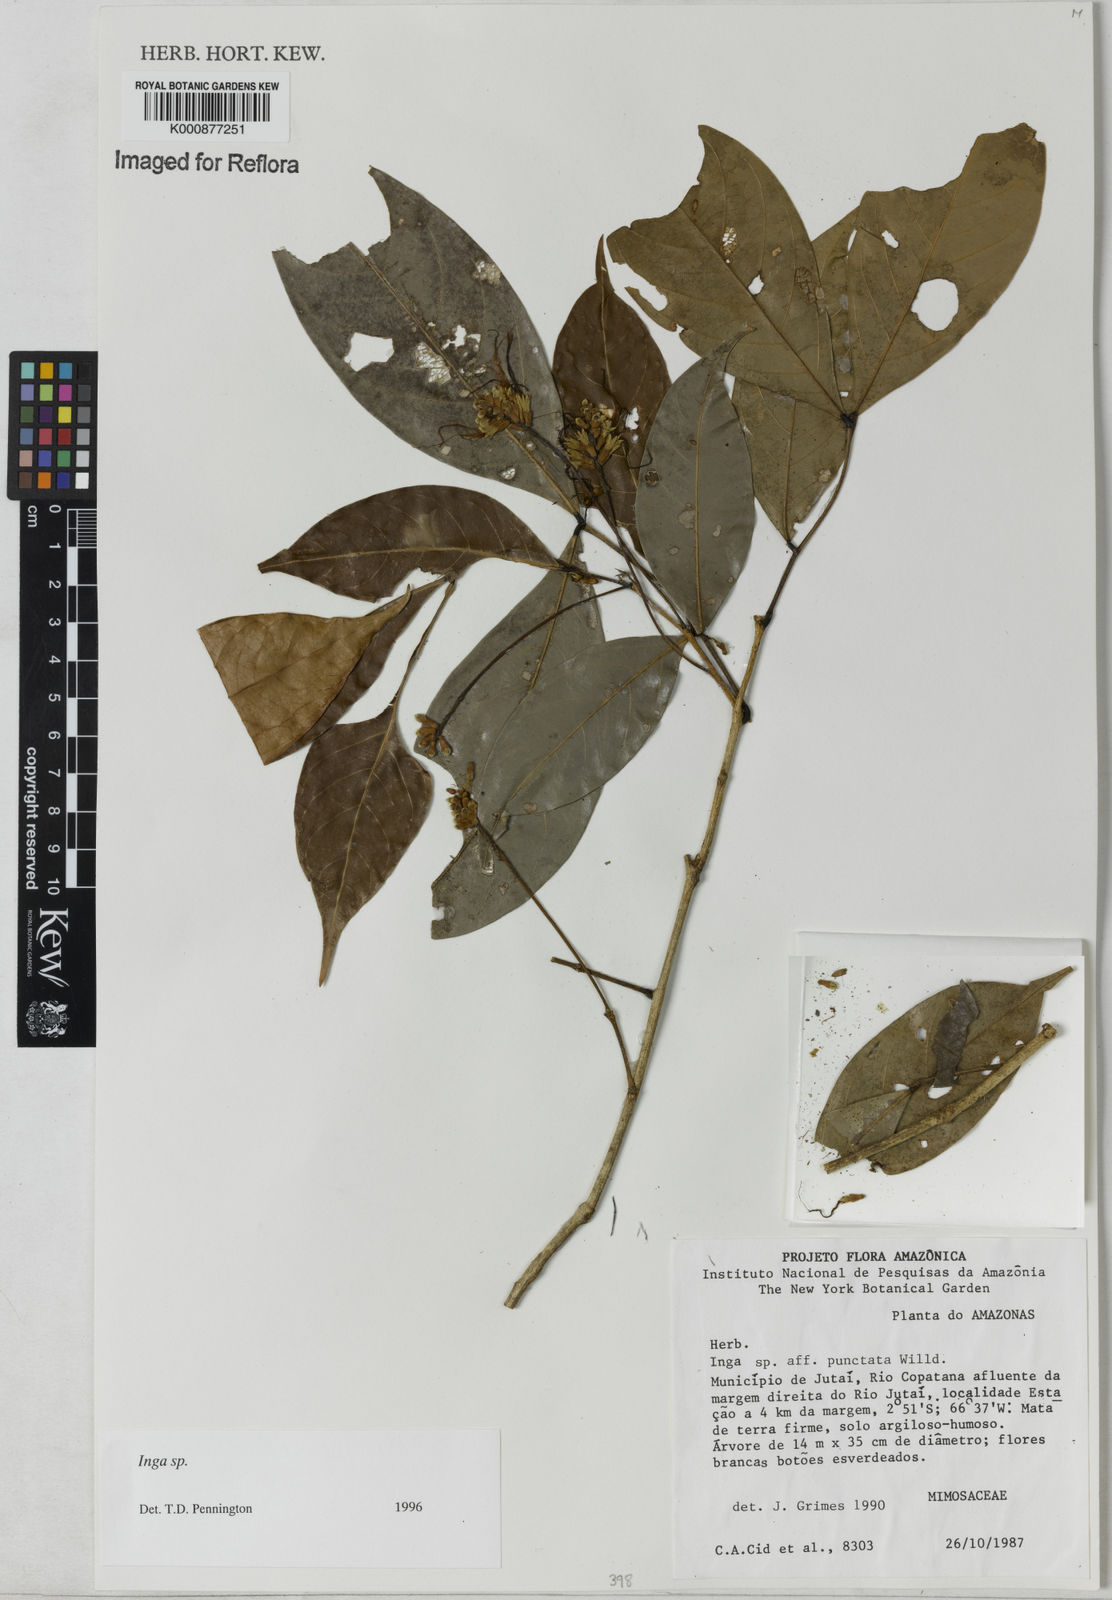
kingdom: Plantae
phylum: Tracheophyta
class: Magnoliopsida
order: Fabales
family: Fabaceae
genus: Inga
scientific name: Inga
